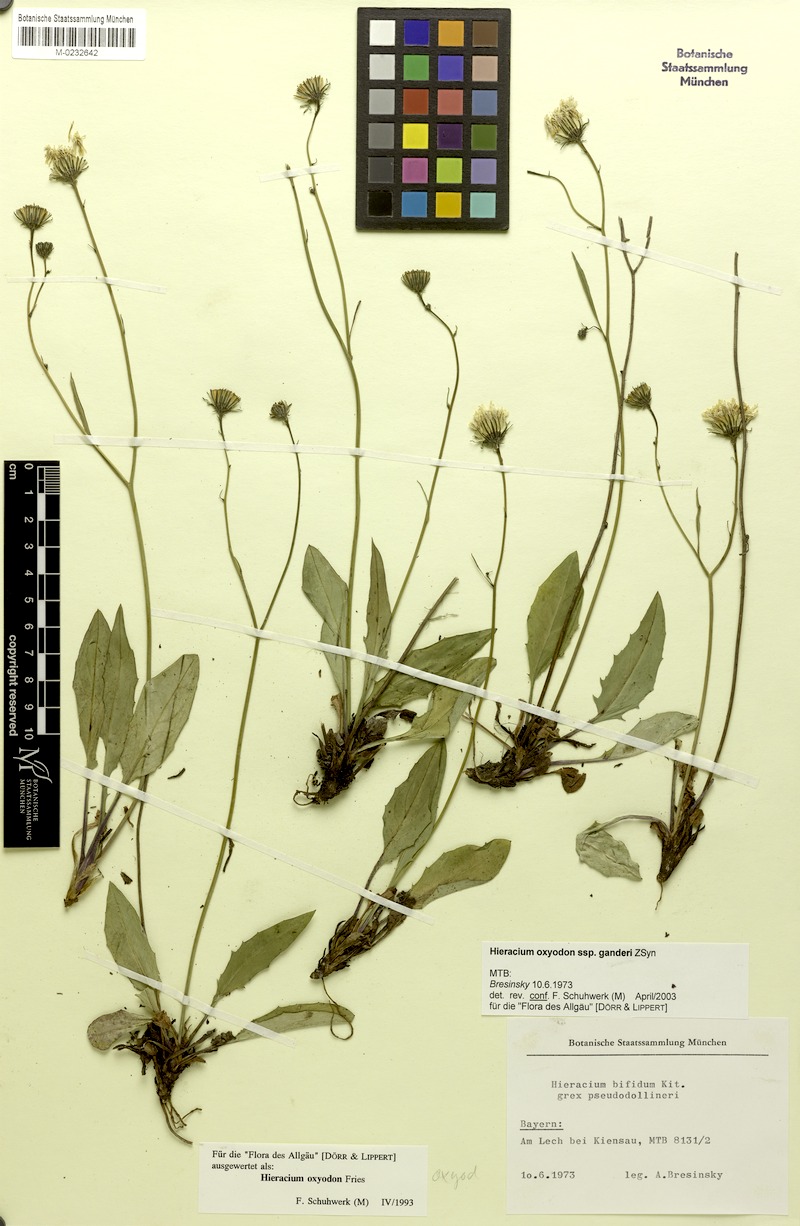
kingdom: Plantae
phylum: Tracheophyta
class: Magnoliopsida
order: Asterales
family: Asteraceae
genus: Hieracium
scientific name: Hieracium oxyodon
